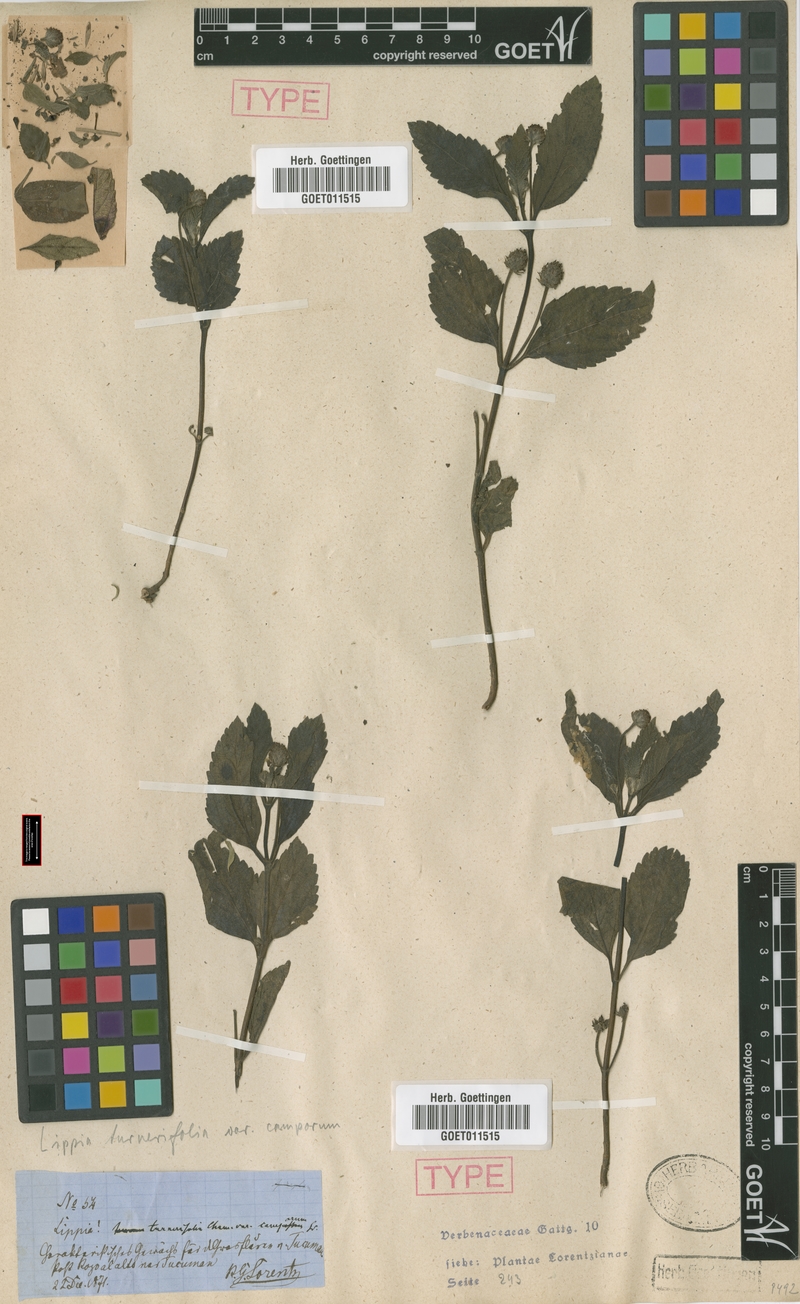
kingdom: Plantae
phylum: Tracheophyta
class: Magnoliopsida
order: Lamiales
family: Verbenaceae
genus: Lippia
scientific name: Lippia asperrima
